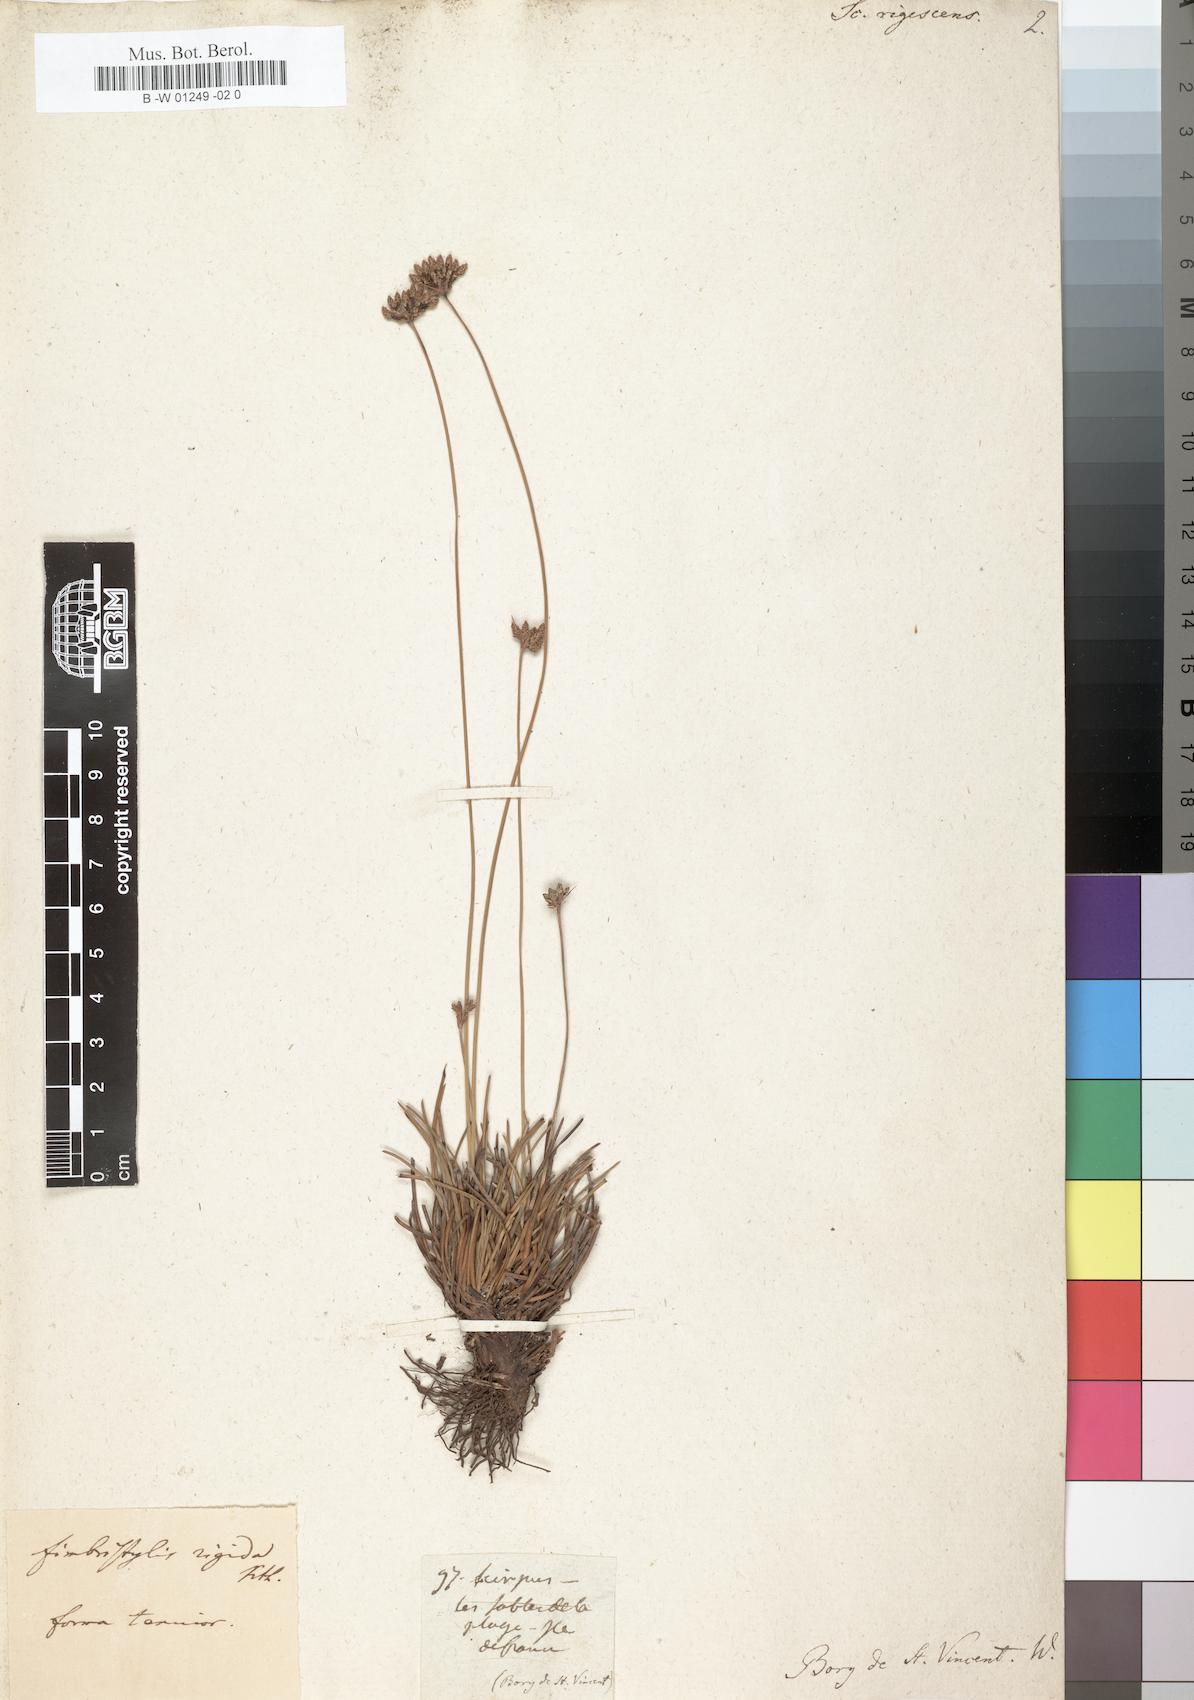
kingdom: Plantae
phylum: Tracheophyta
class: Liliopsida
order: Poales
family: Cyperaceae
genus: Fimbristylis
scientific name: Fimbristylis cymosa
